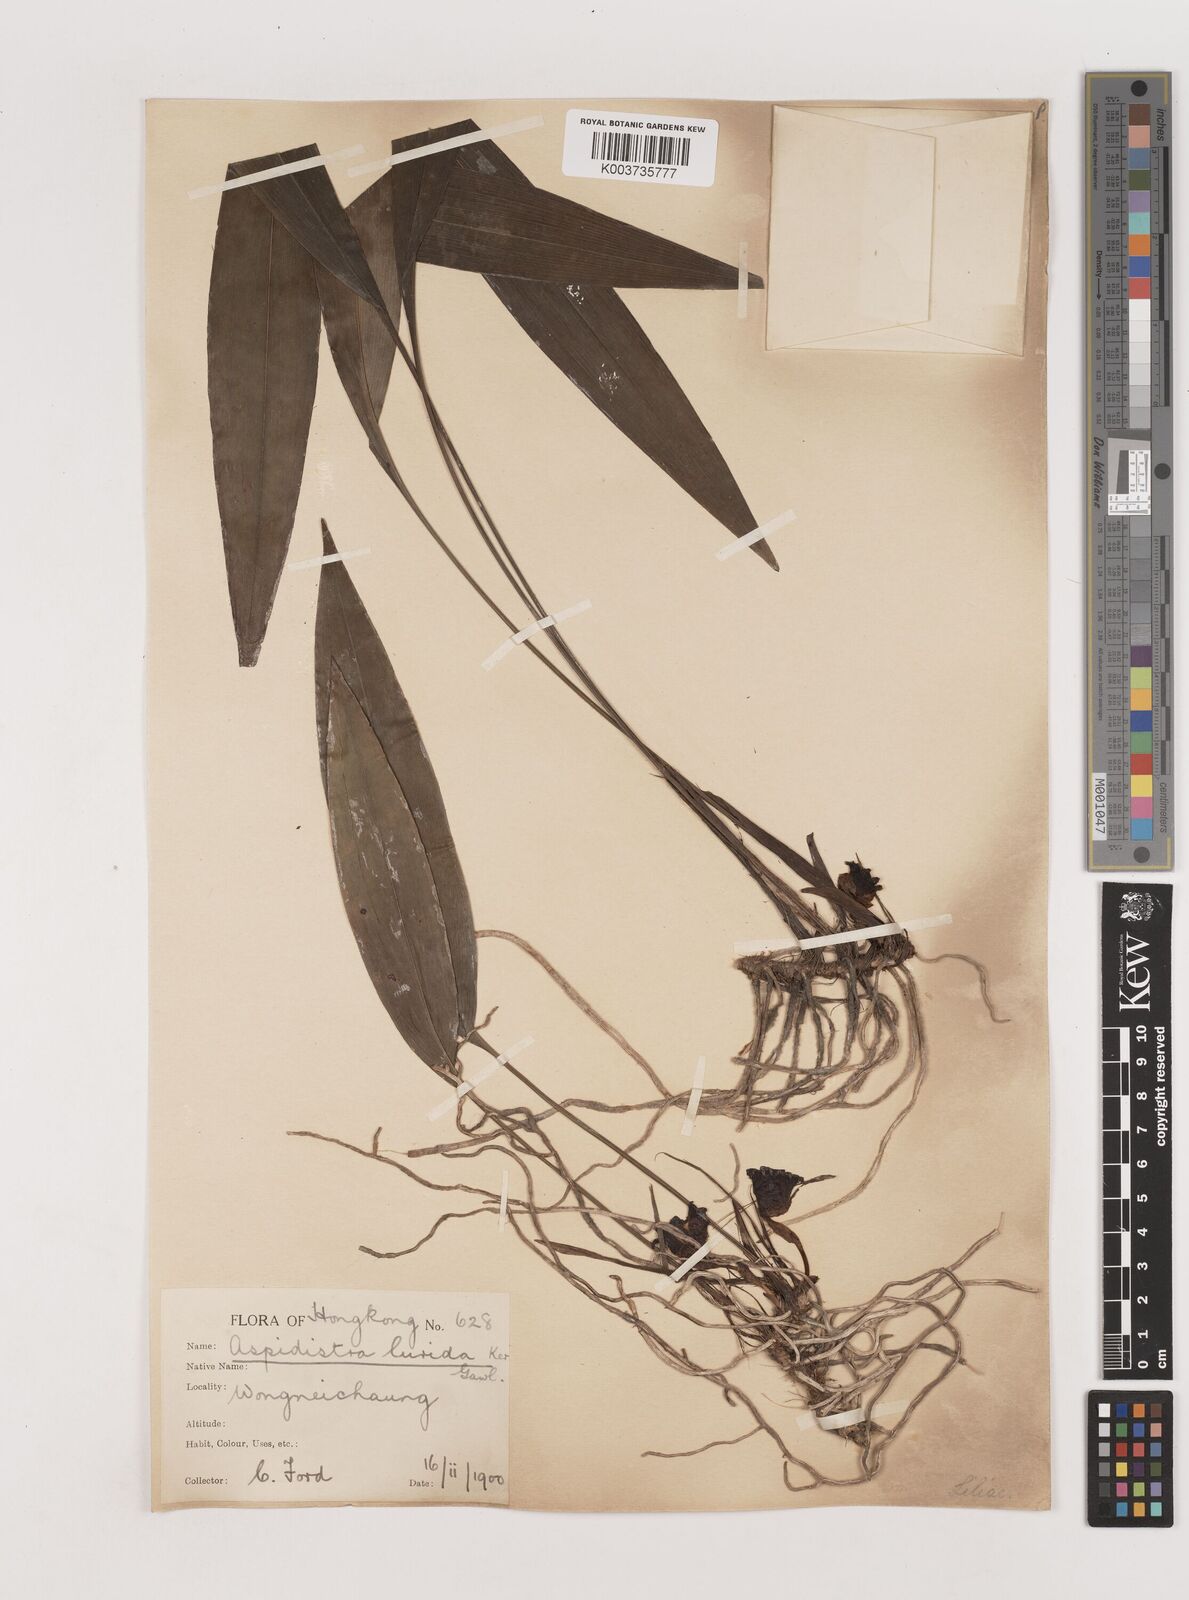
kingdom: Plantae
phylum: Tracheophyta
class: Liliopsida
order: Asparagales
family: Asparagaceae
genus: Aspidistra
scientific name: Aspidistra lurida
